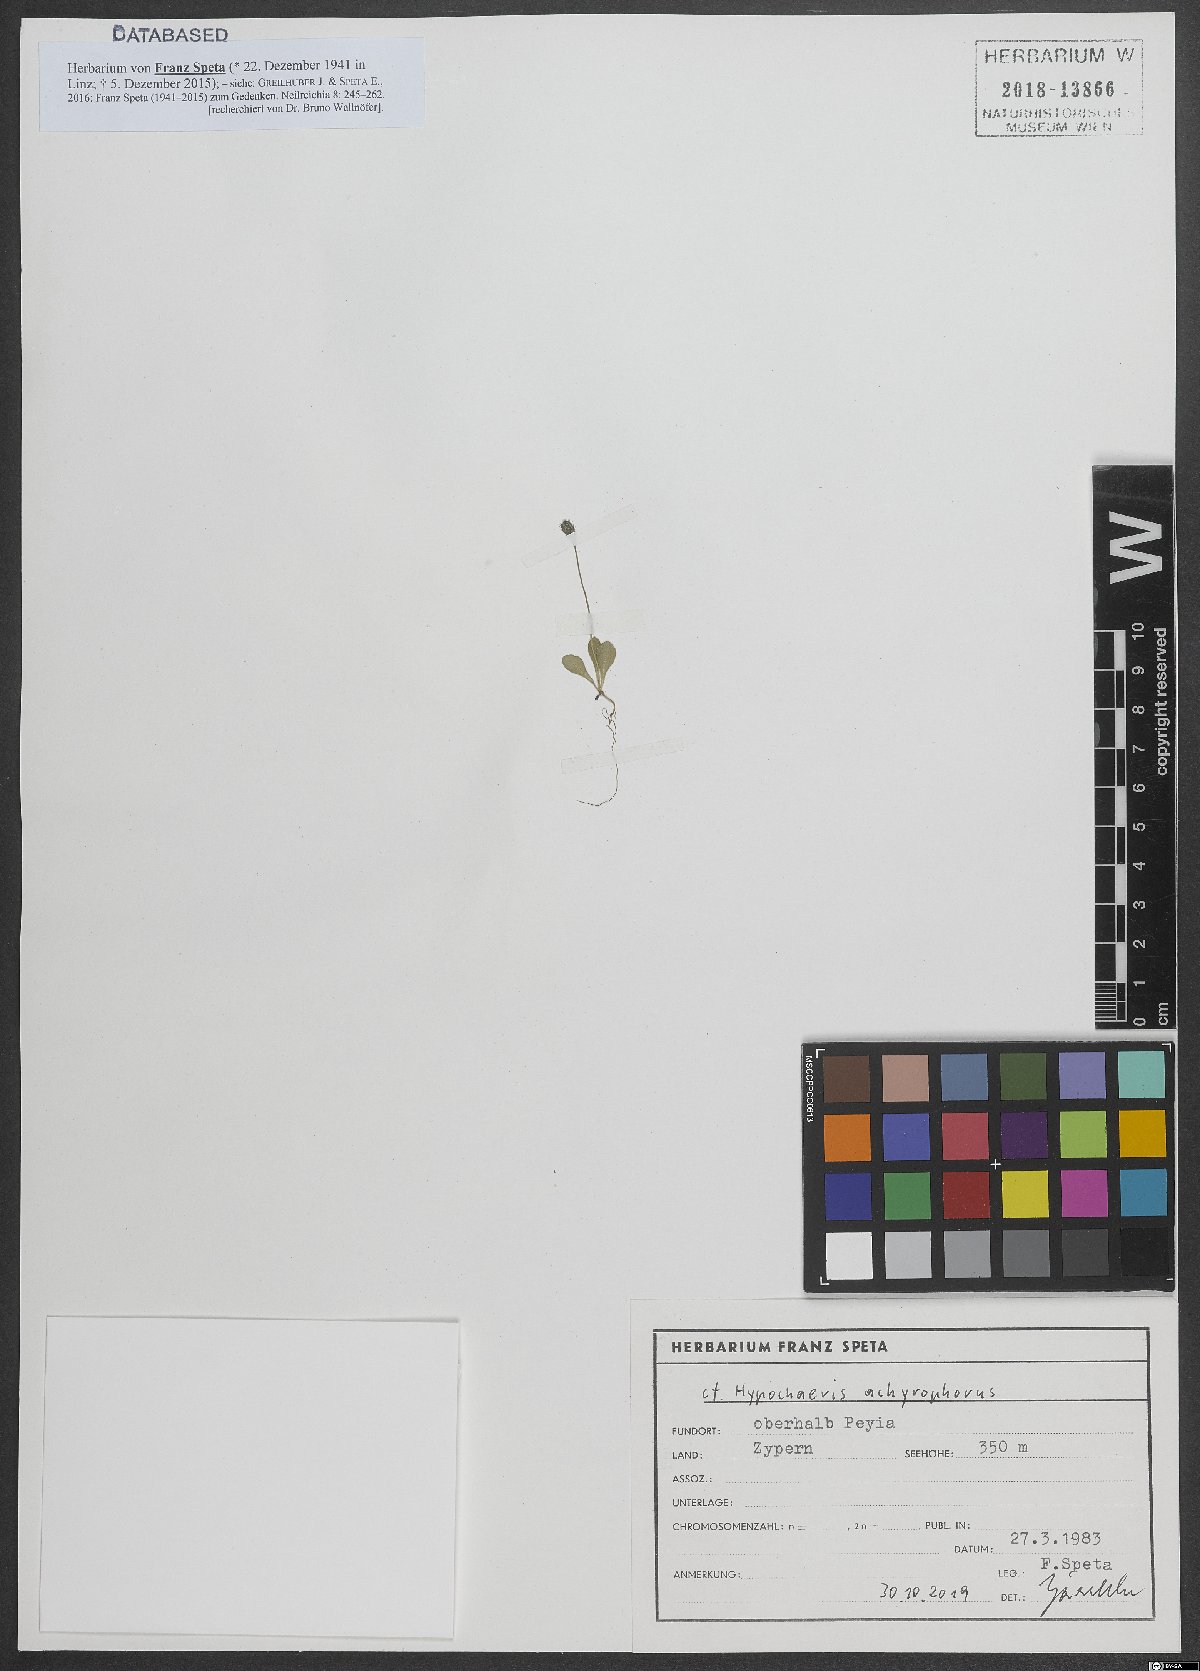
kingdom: Plantae
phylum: Tracheophyta
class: Magnoliopsida
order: Asterales
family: Asteraceae
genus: Achyrophorus
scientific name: Achyrophorus valdesii
